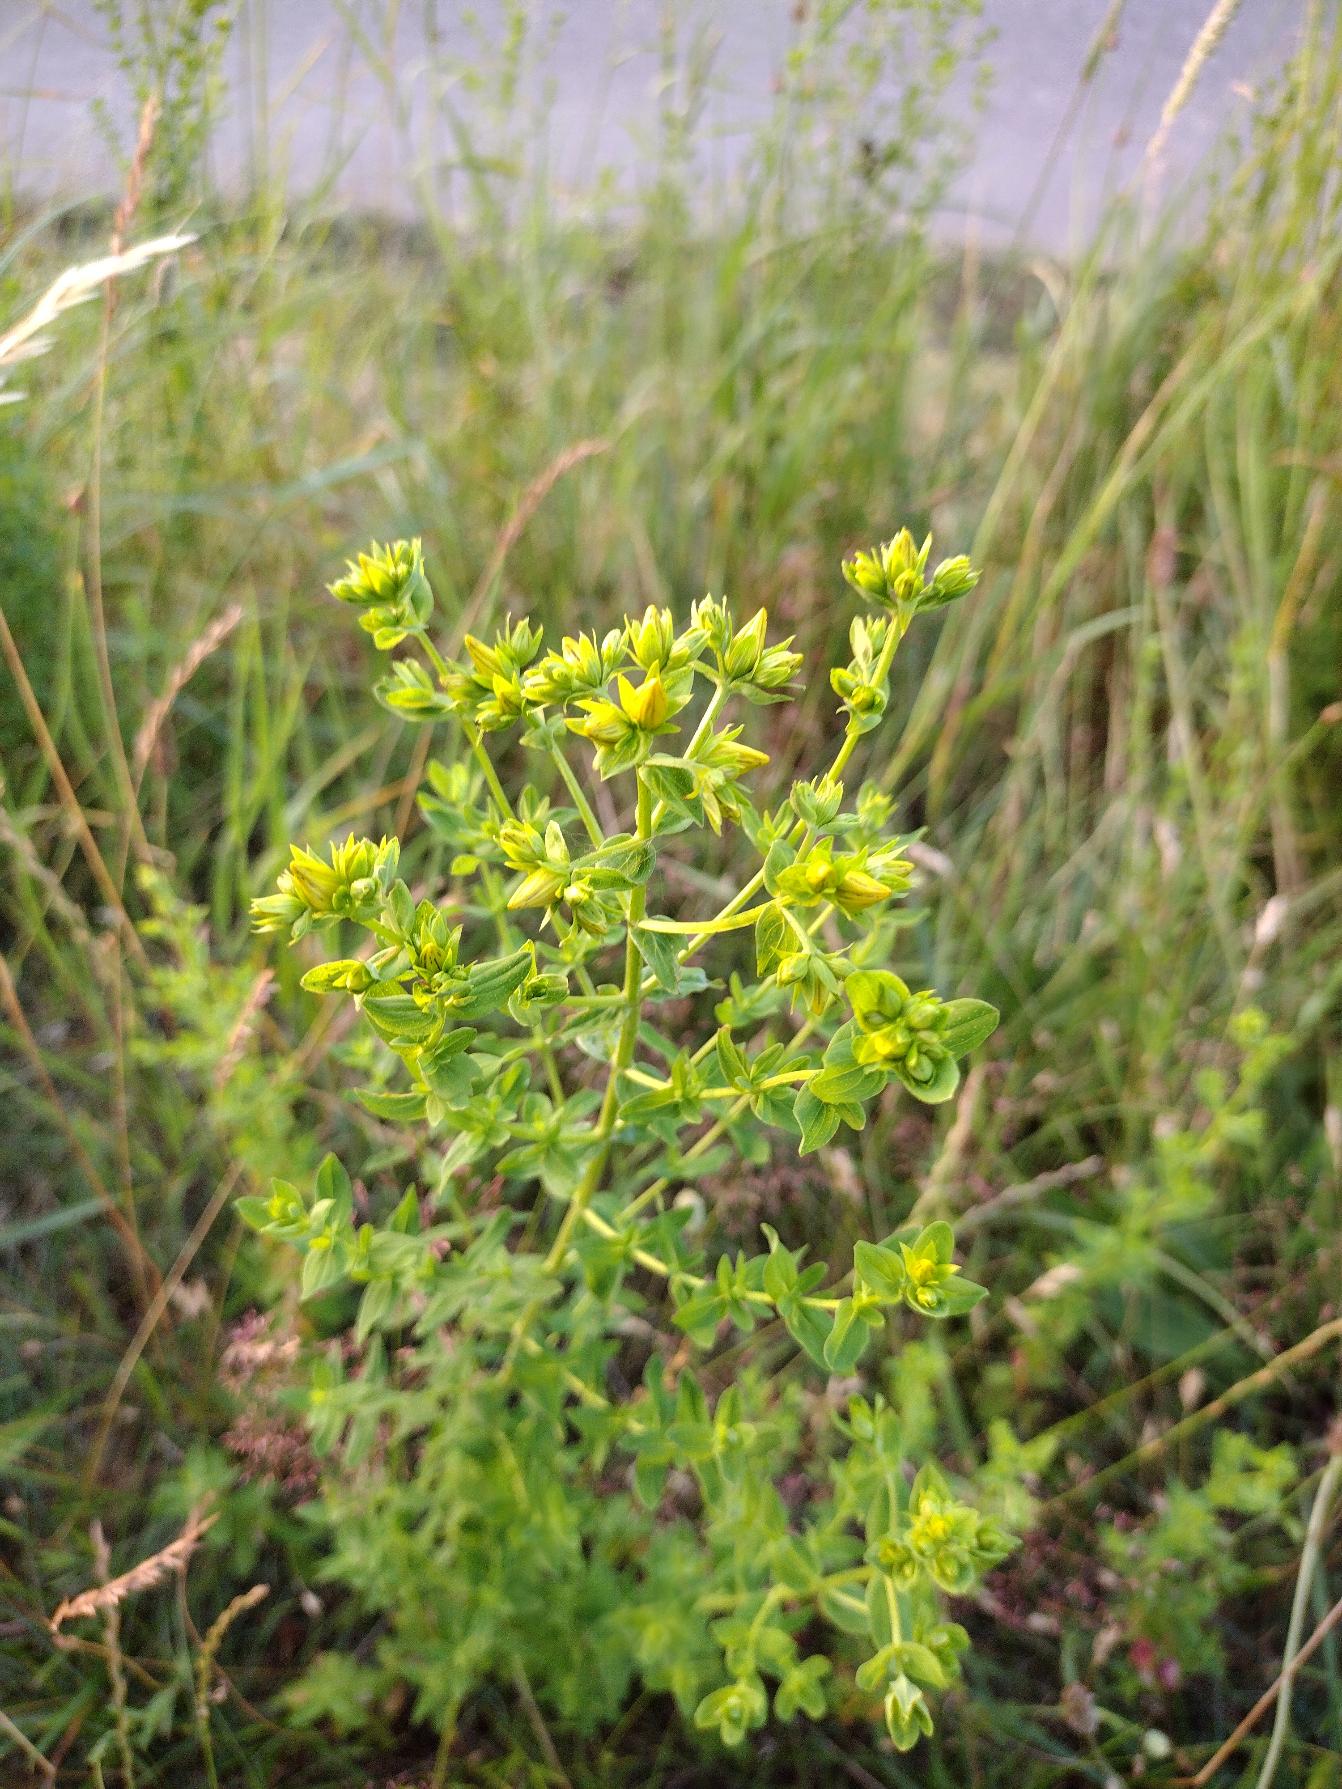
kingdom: Plantae
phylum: Tracheophyta
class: Magnoliopsida
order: Malpighiales
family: Hypericaceae
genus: Hypericum
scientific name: Hypericum perforatum
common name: Prikbladet perikon
